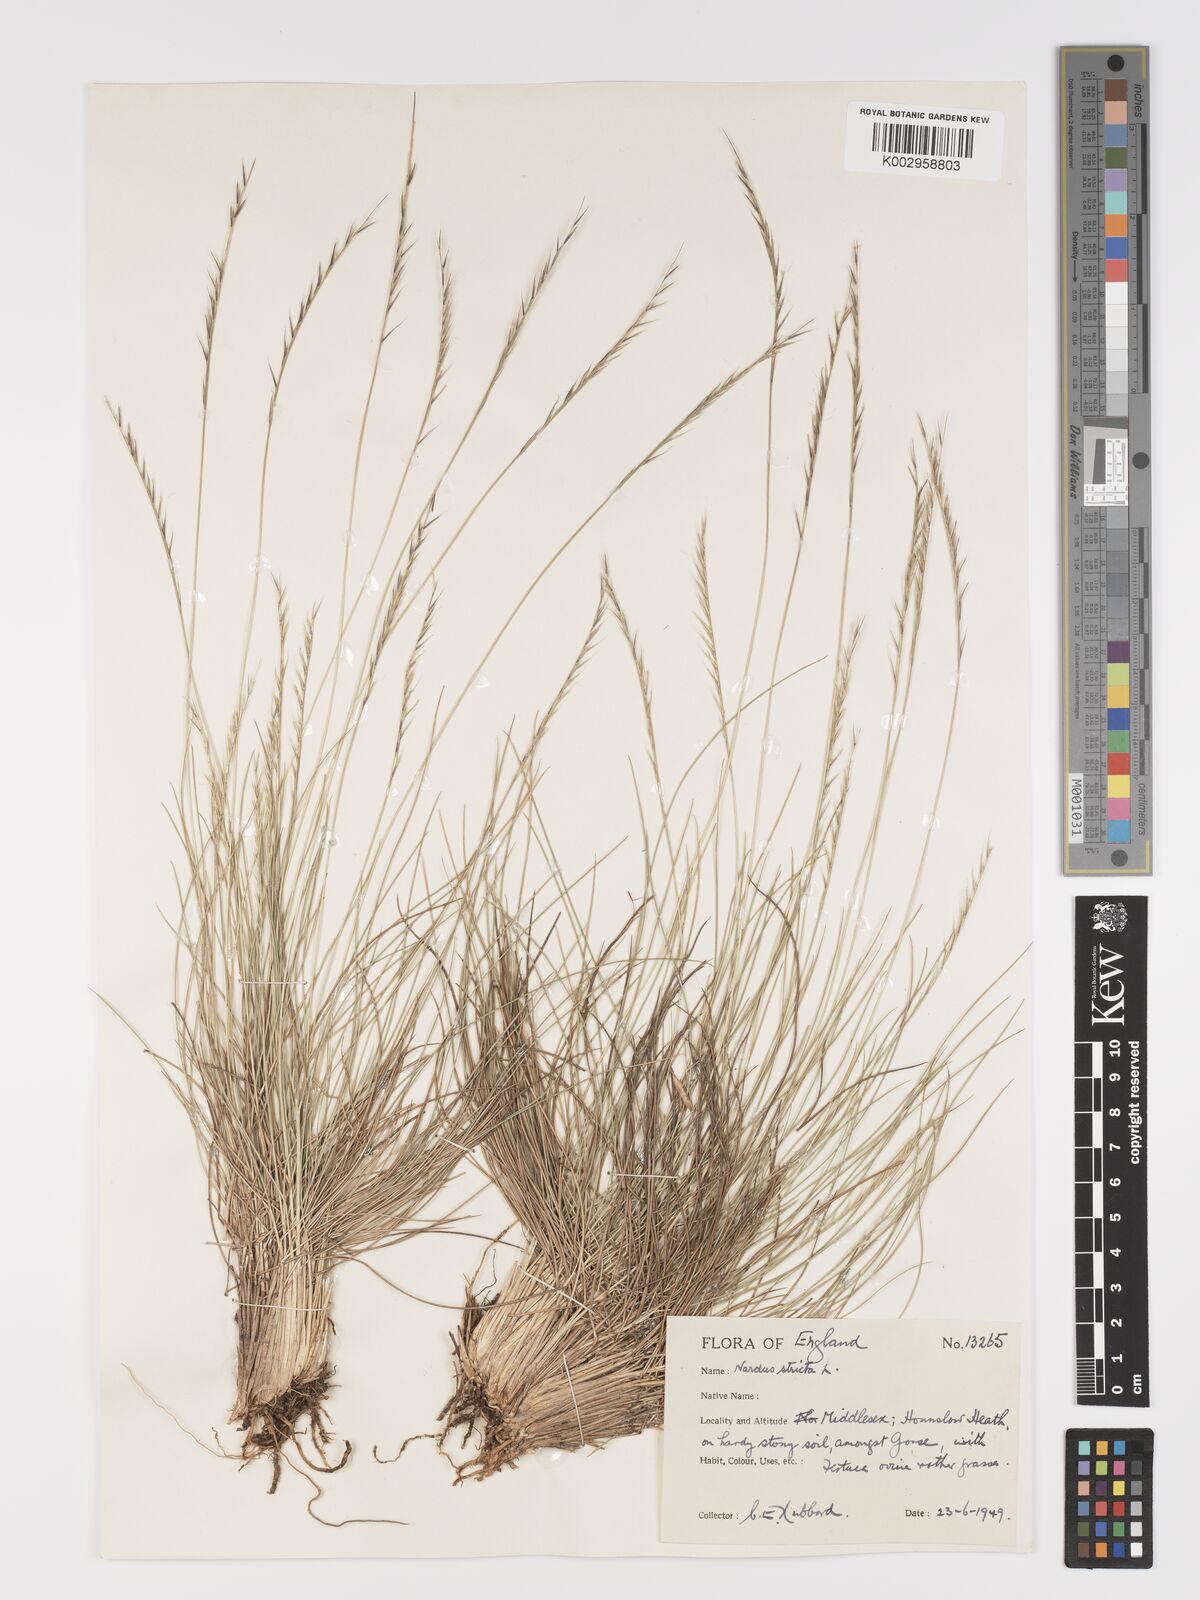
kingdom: Plantae
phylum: Tracheophyta
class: Liliopsida
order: Poales
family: Poaceae
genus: Nardus
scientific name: Nardus stricta
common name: Mat-grass
